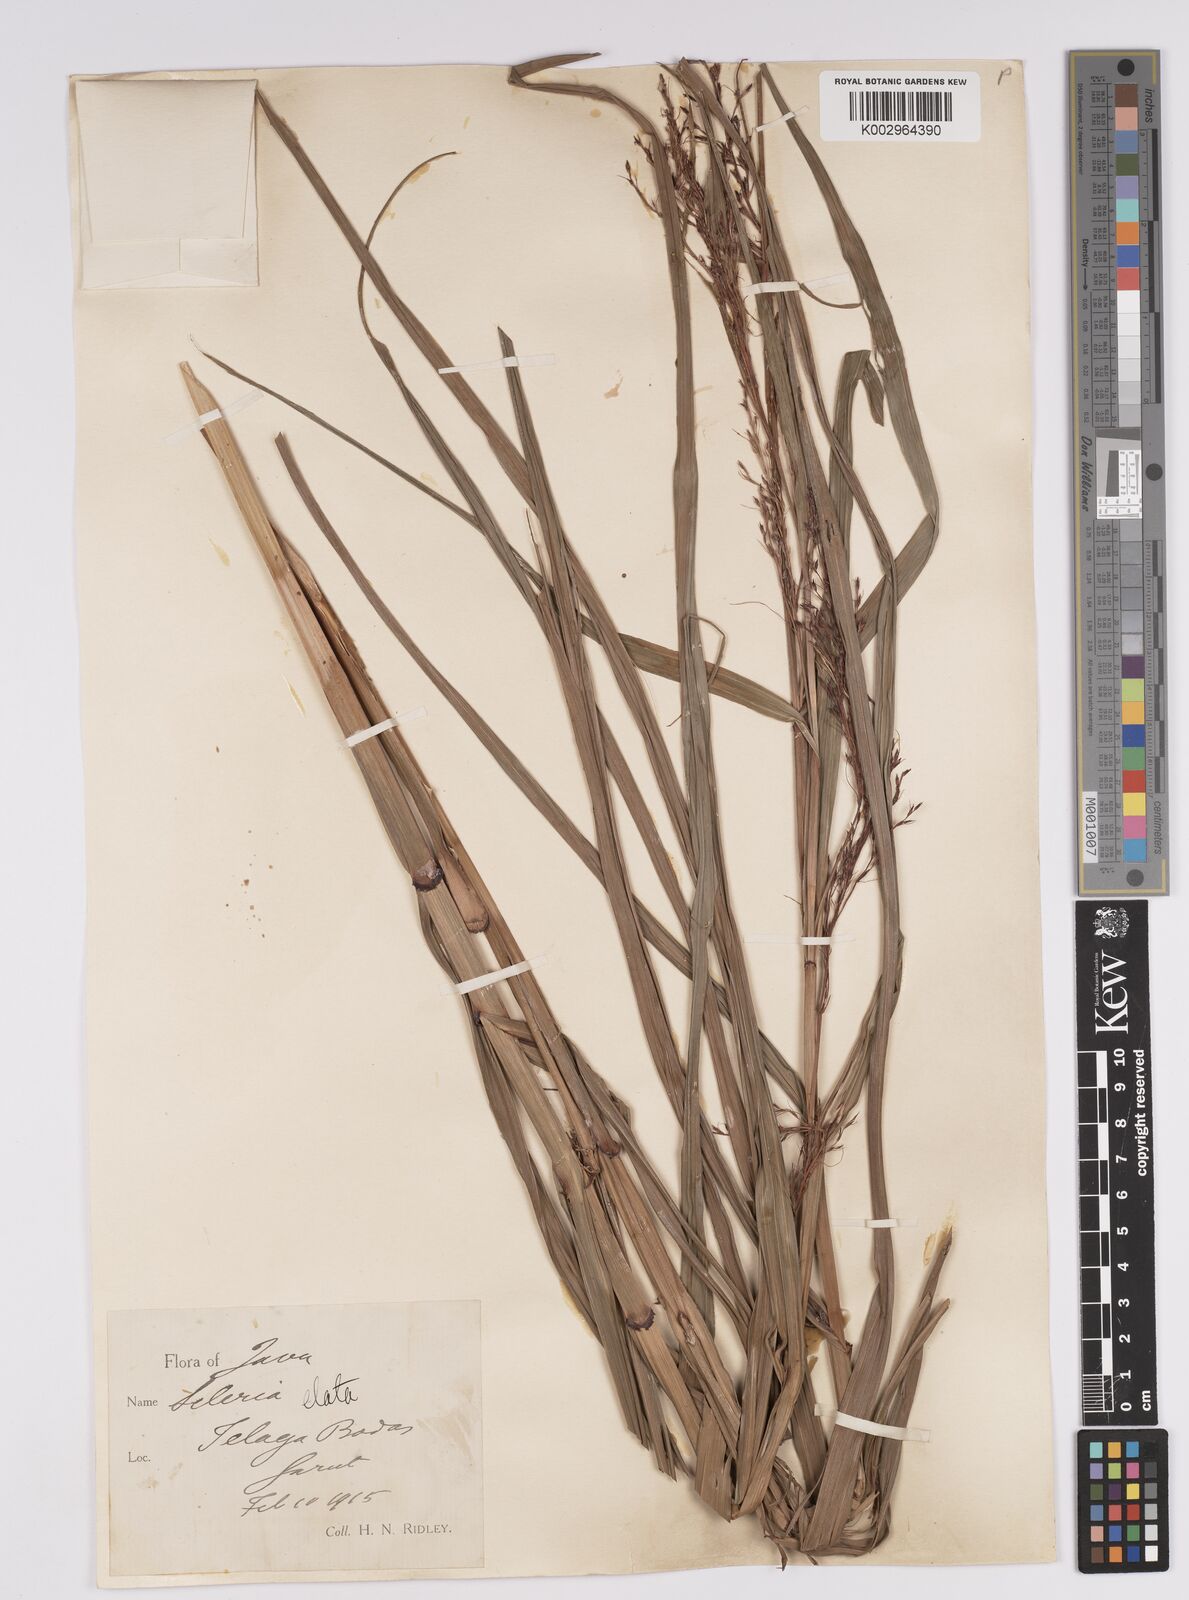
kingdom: Plantae
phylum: Tracheophyta
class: Liliopsida
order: Poales
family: Cyperaceae
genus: Scleria
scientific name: Scleria terrestris
